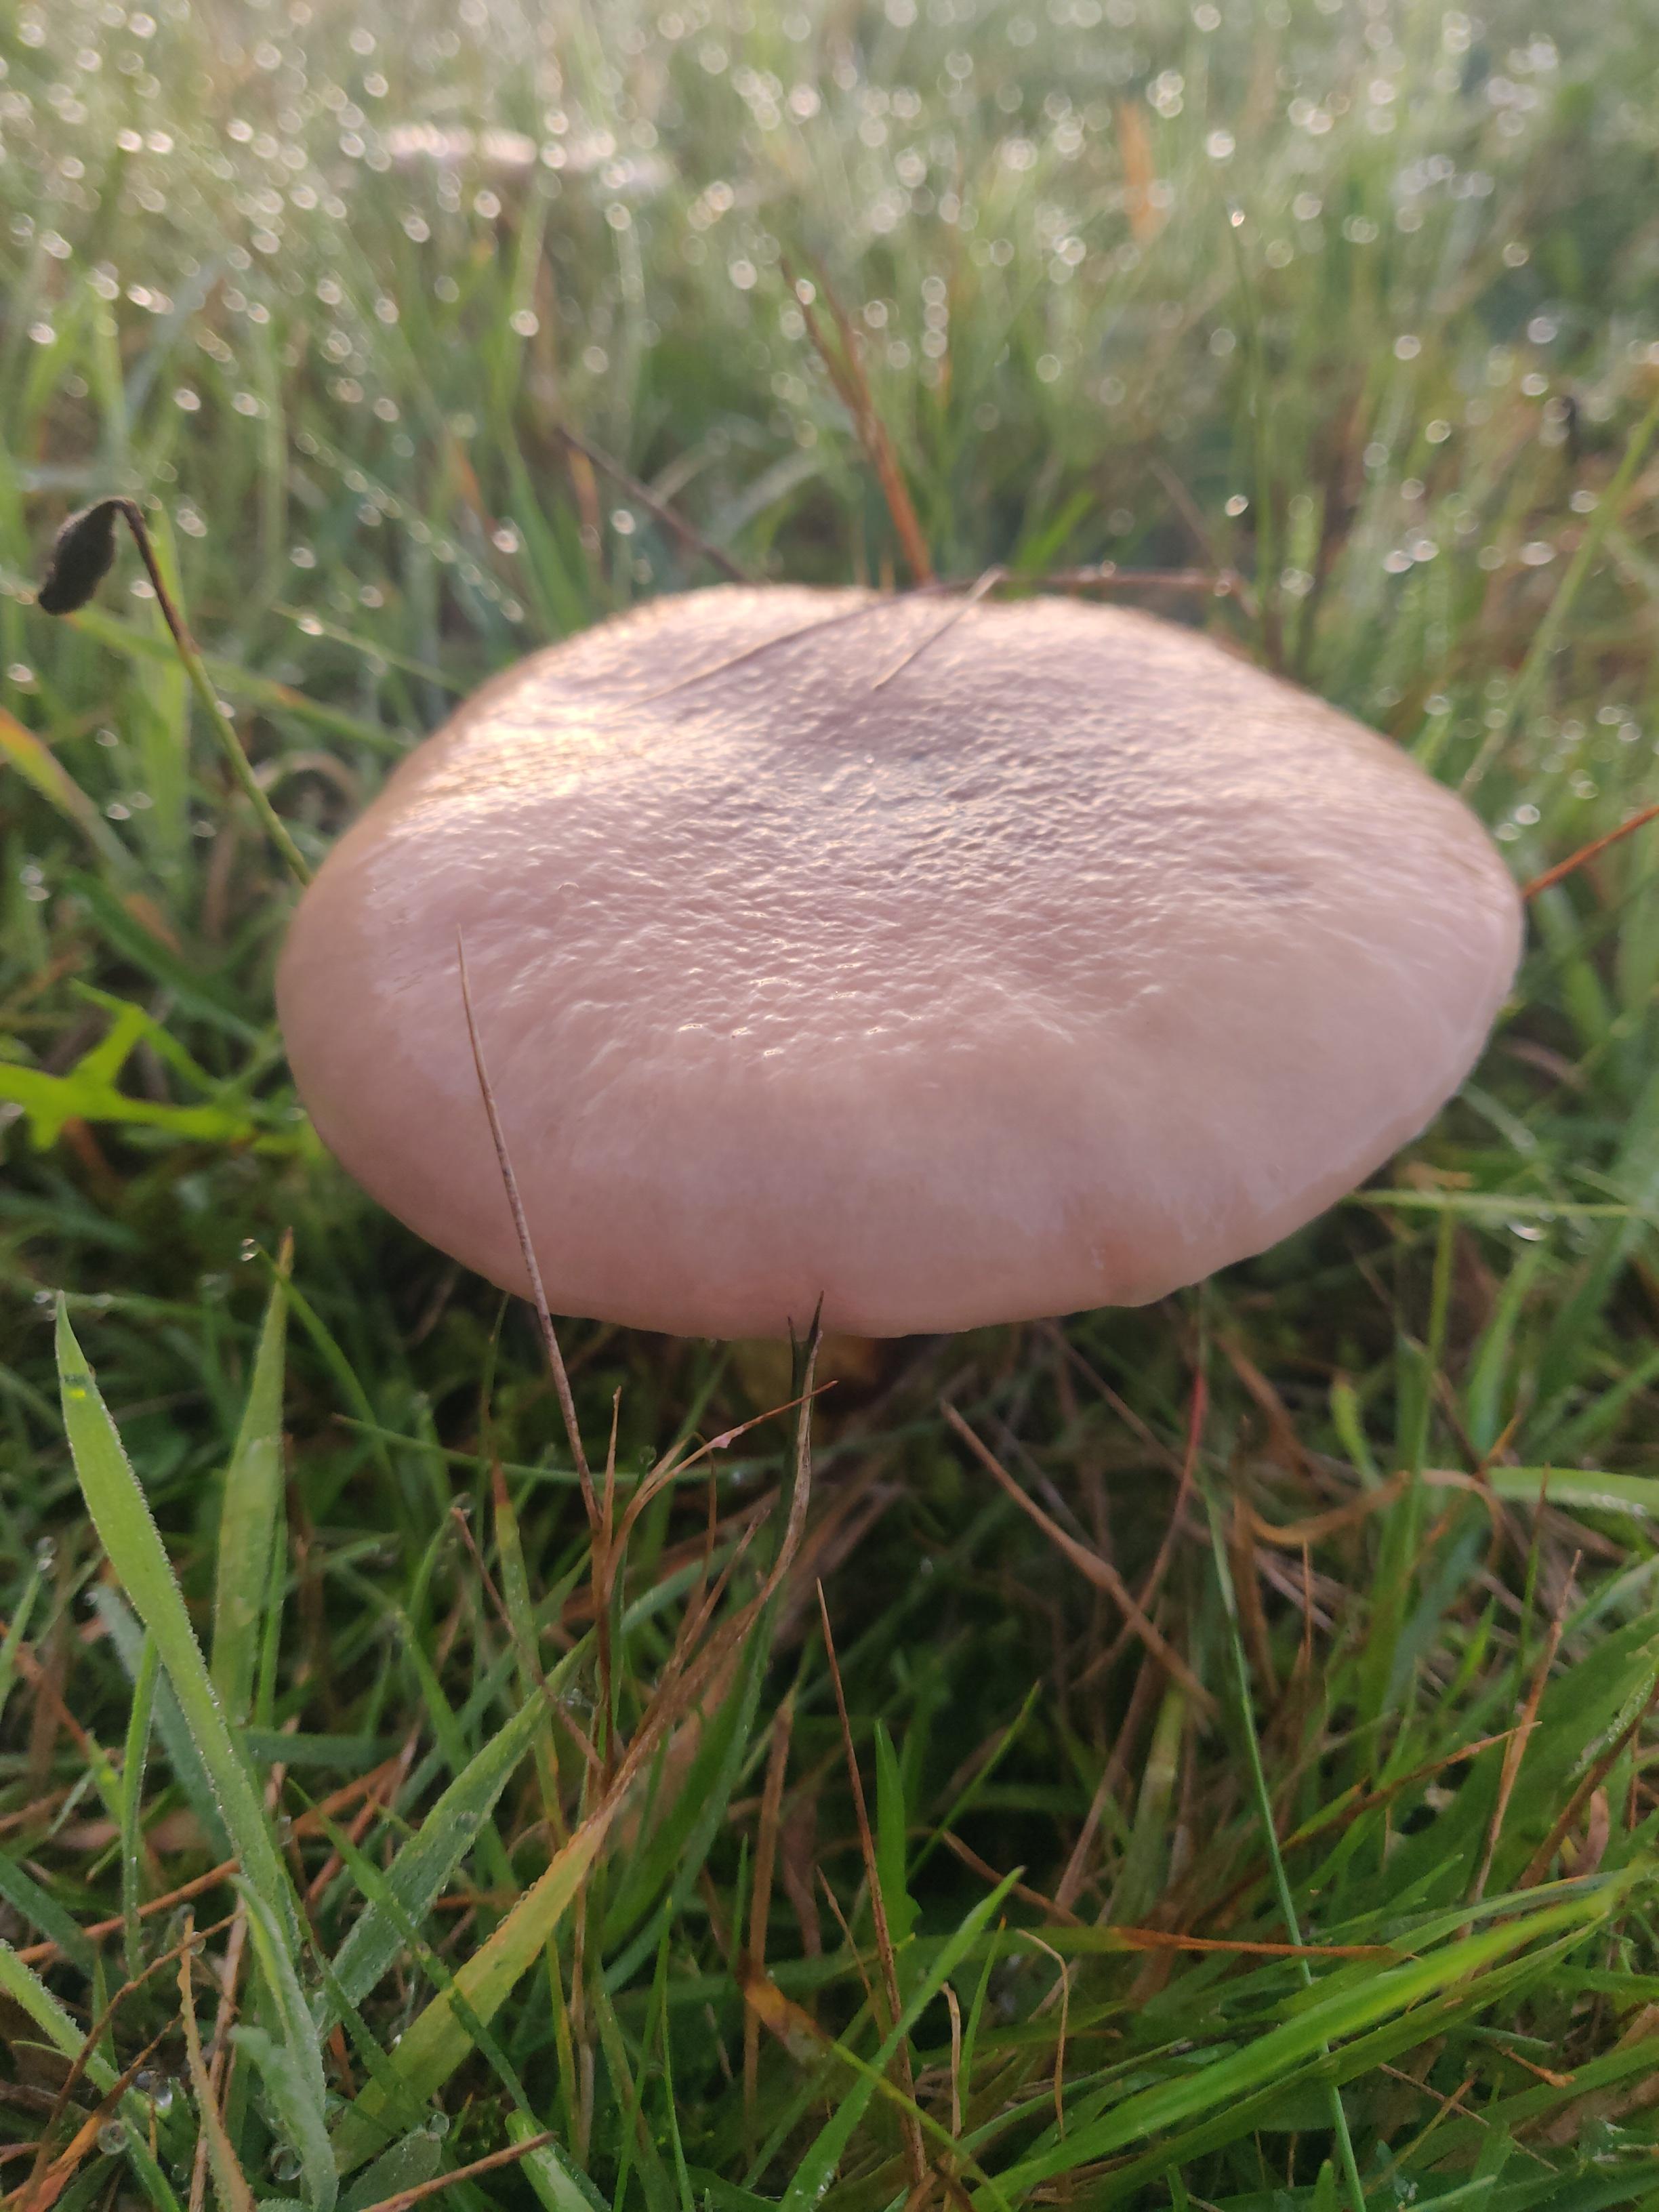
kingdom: Fungi
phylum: Basidiomycota
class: Agaricomycetes
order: Boletales
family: Gomphidiaceae
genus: Gomphidius
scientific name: Gomphidius glutinosus
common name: grå slimslør
